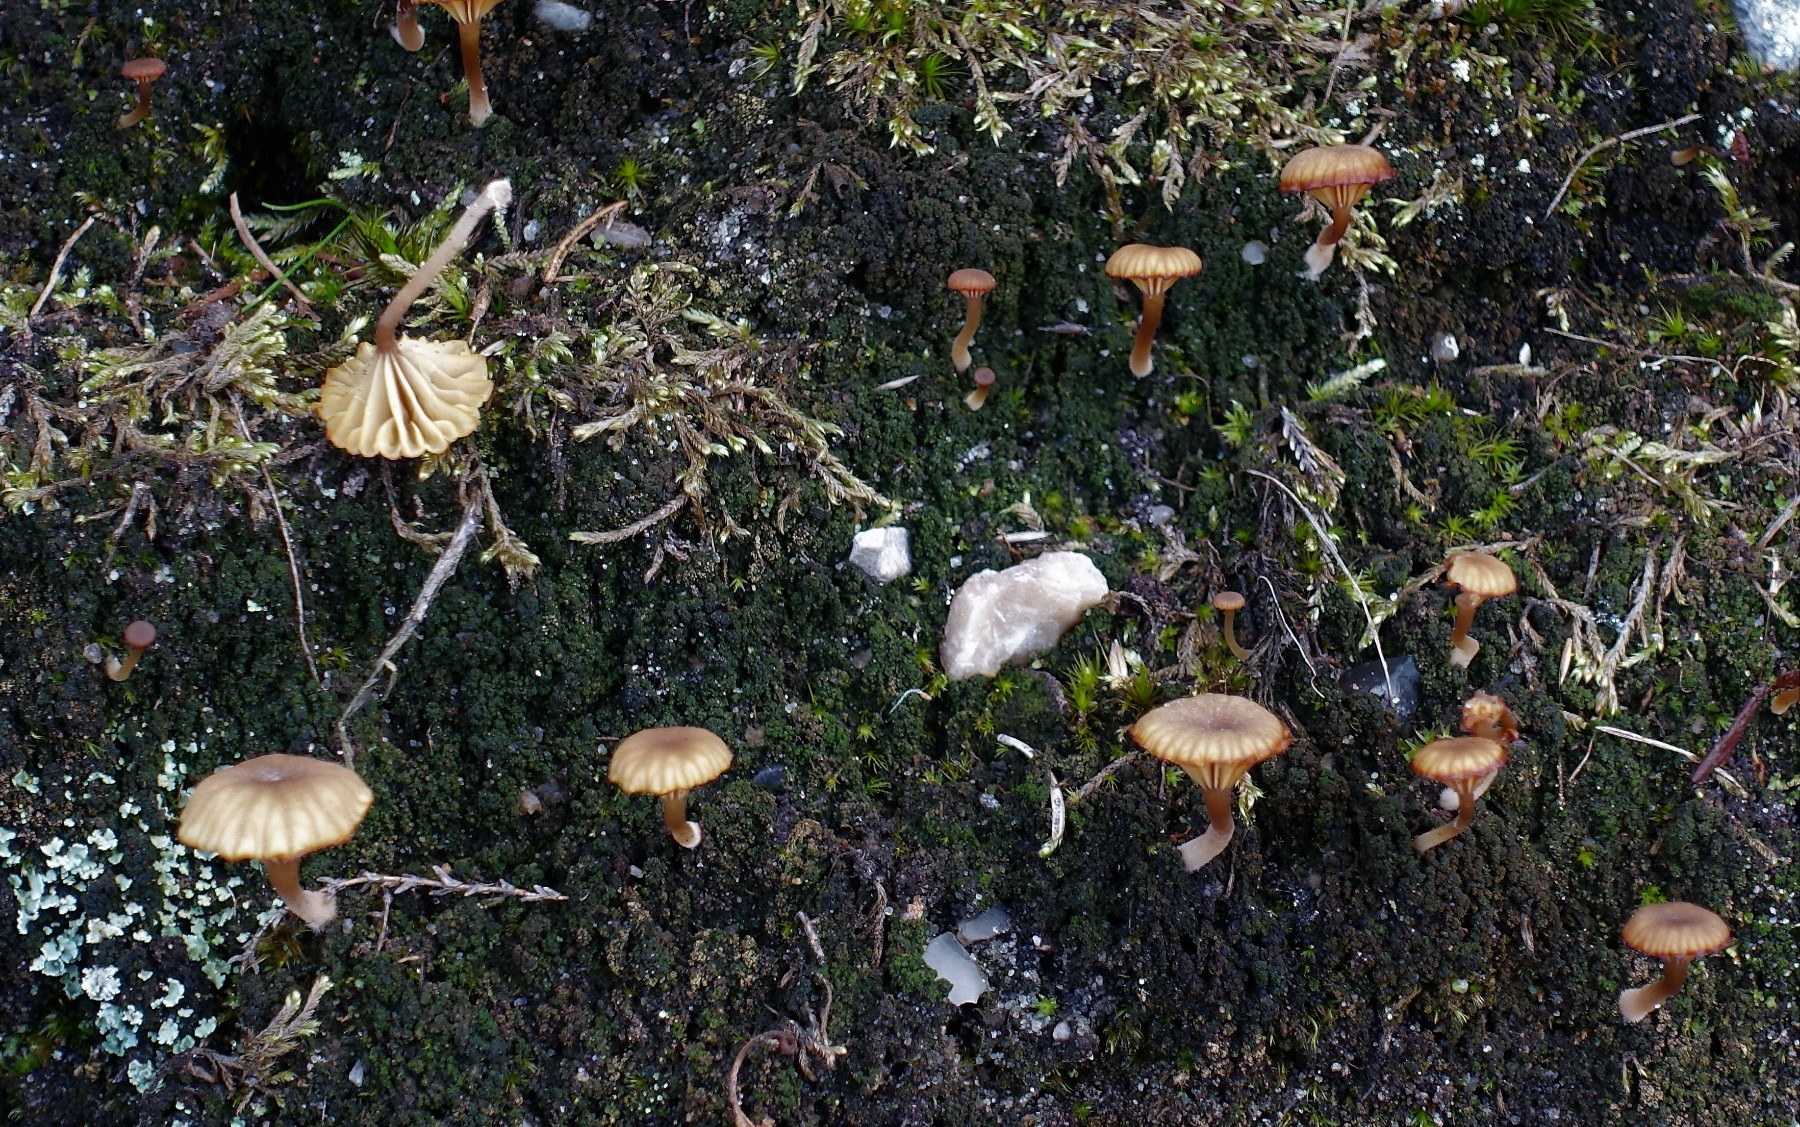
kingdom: Fungi
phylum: Basidiomycota
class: Agaricomycetes
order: Agaricales
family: Hygrophoraceae
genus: Lichenomphalia
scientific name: Lichenomphalia umbellifera
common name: tørve-lavhat
